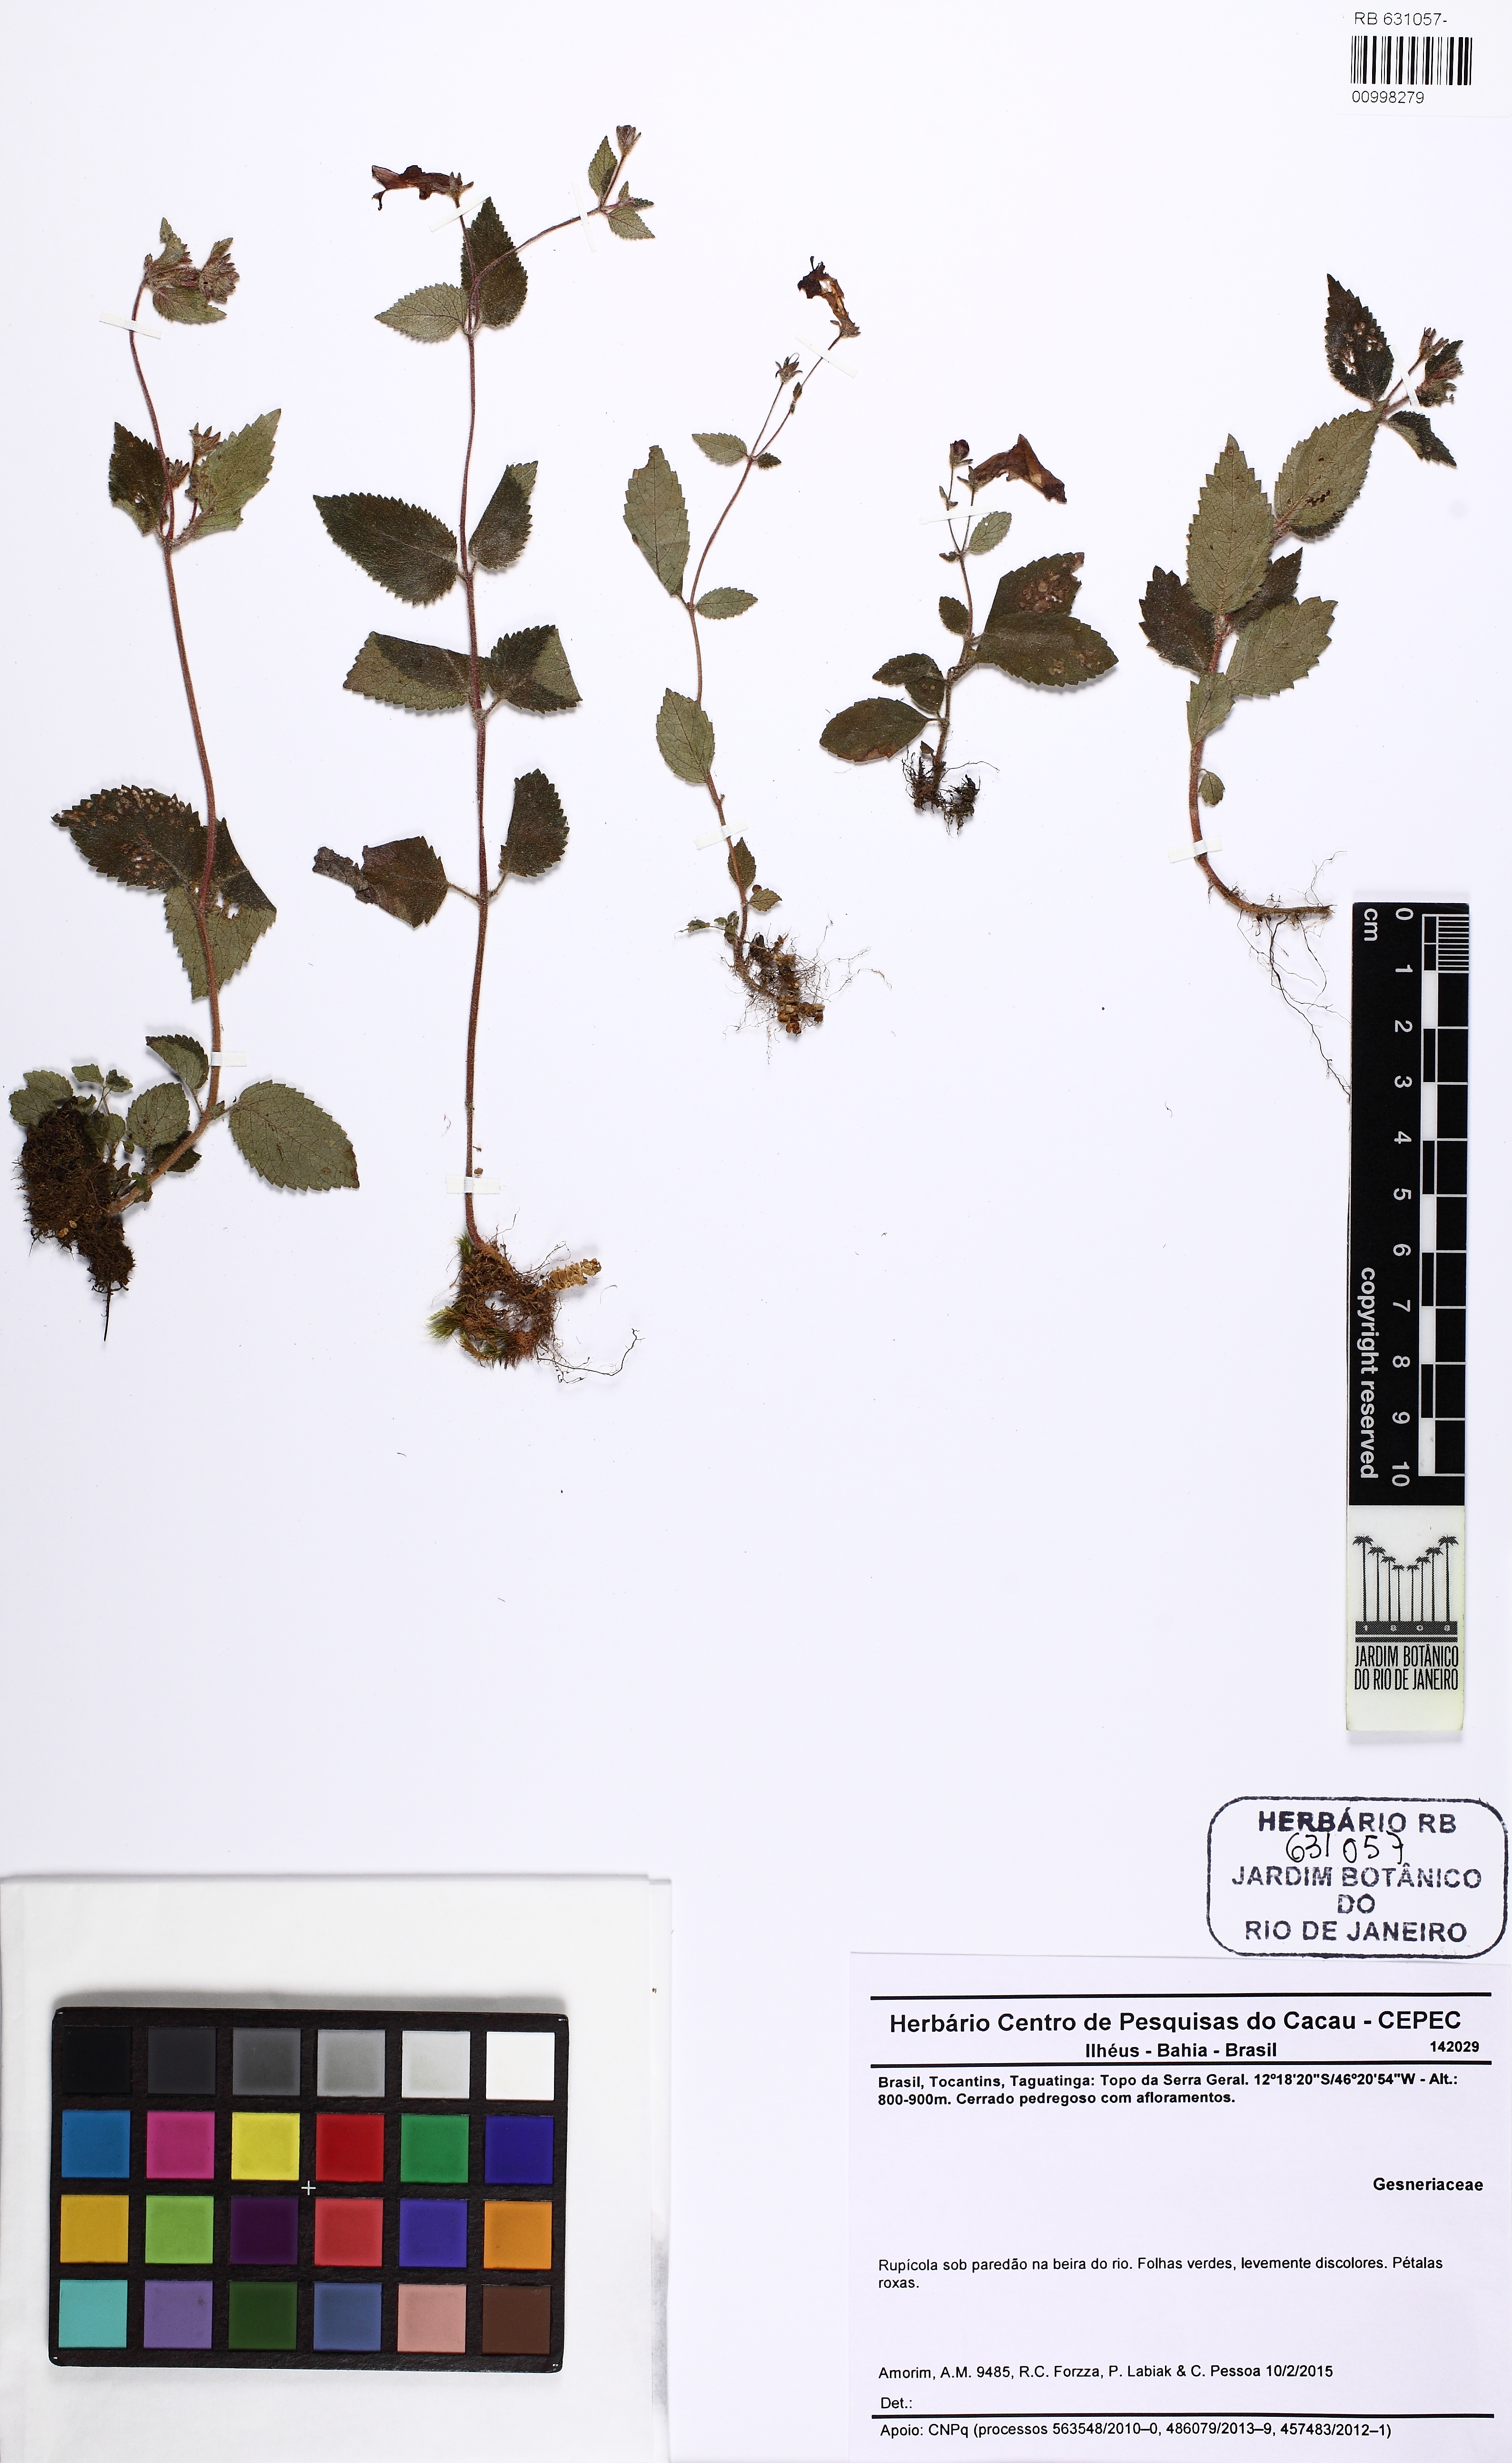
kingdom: Plantae
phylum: Tracheophyta
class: Magnoliopsida
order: Lamiales
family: Gesneriaceae
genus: Goyazia
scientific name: Goyazia
